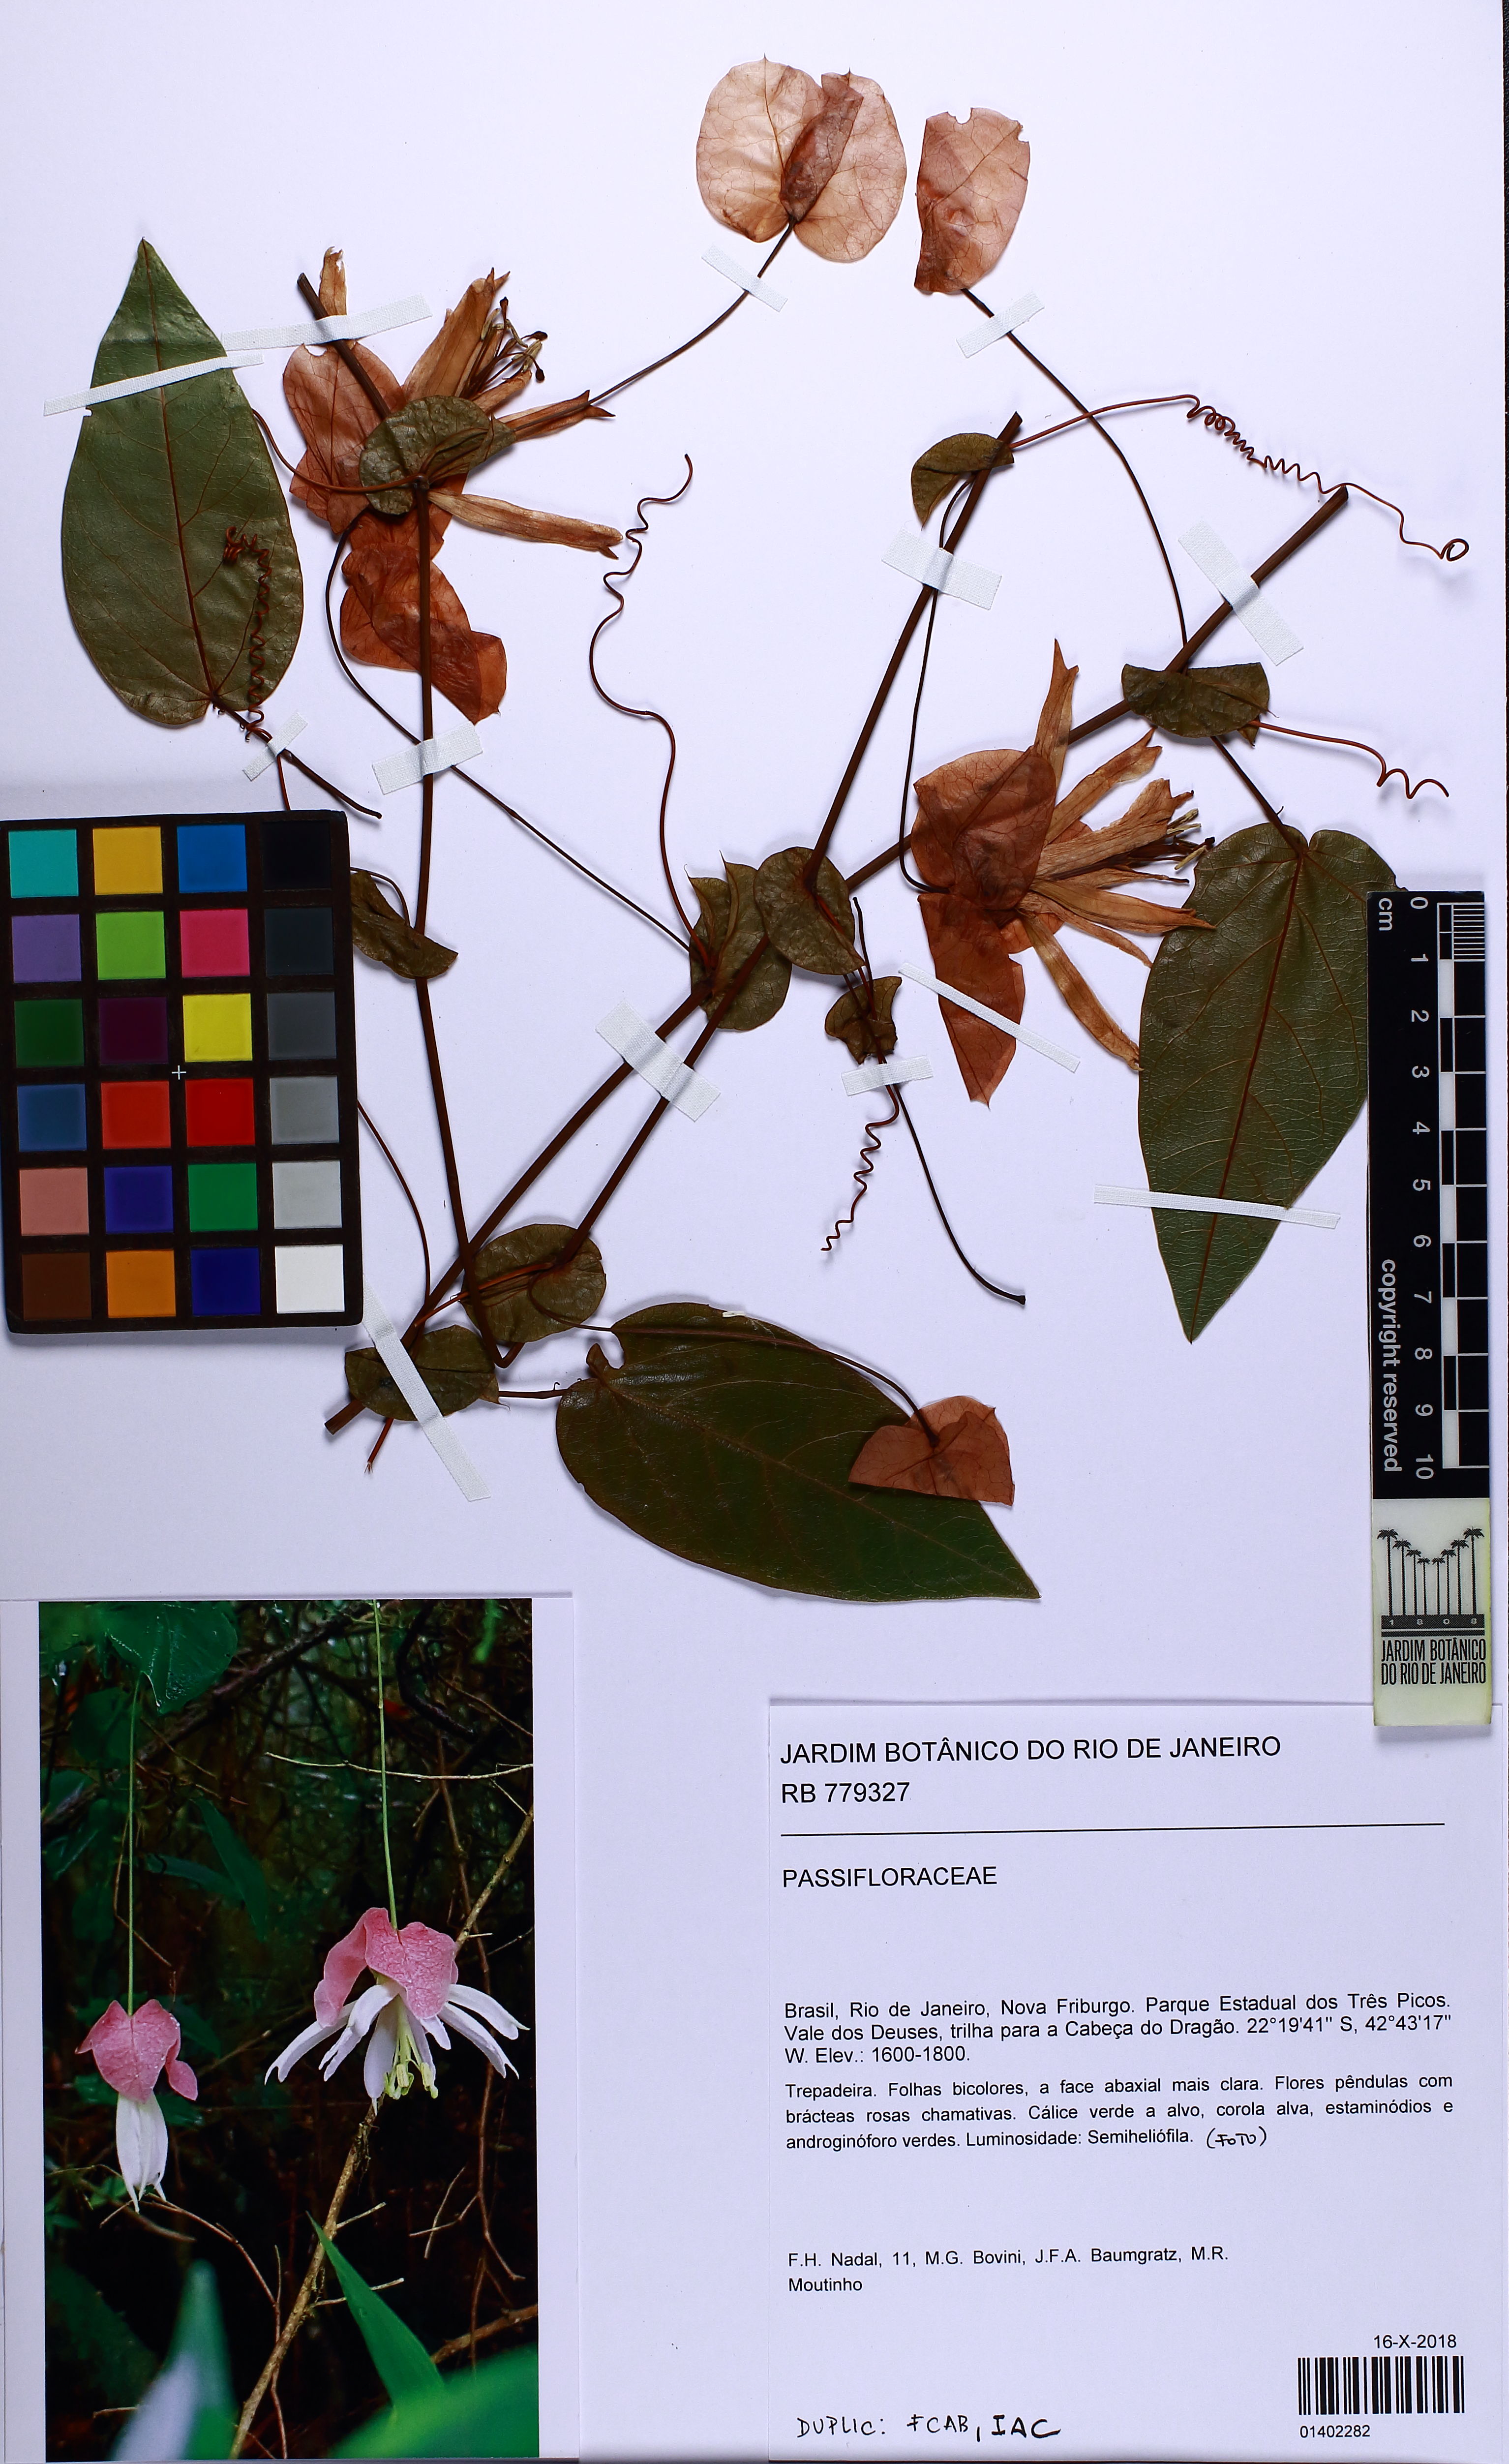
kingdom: Plantae
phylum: Tracheophyta
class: Magnoliopsida
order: Malpighiales
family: Passifloraceae
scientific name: Passifloraceae
